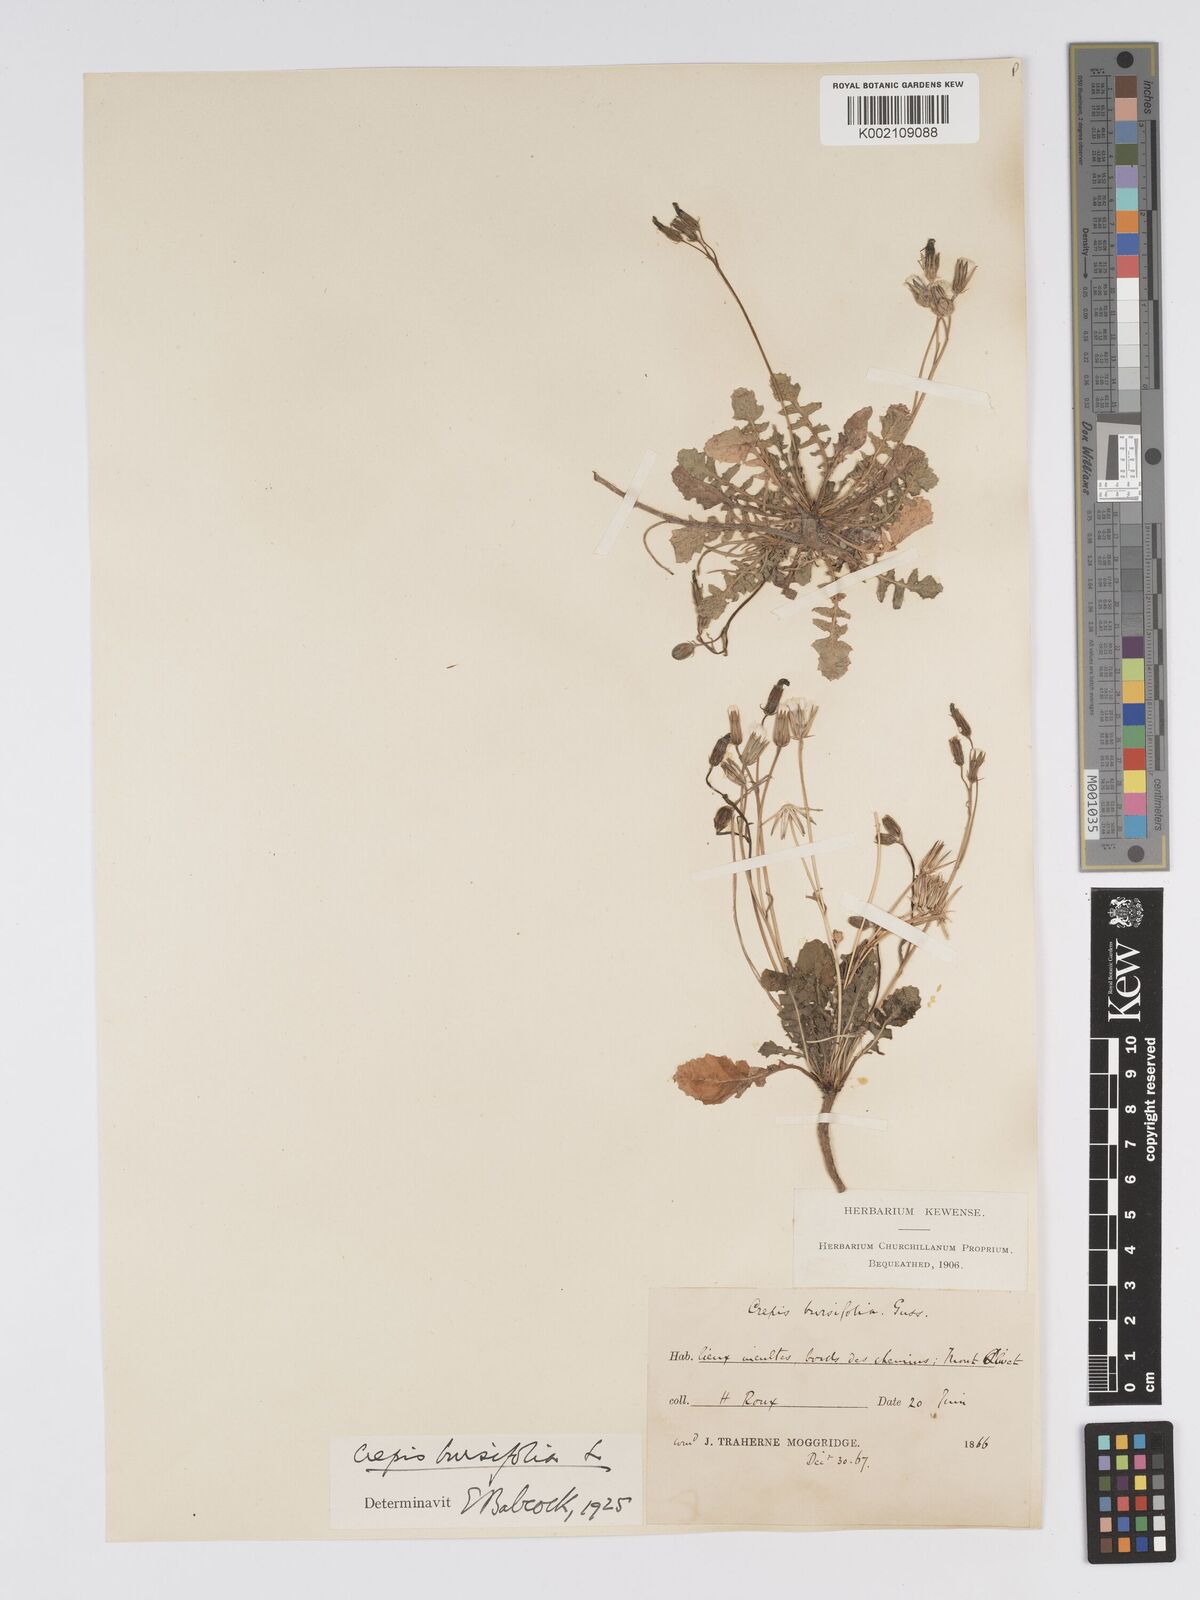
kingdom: Plantae
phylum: Tracheophyta
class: Magnoliopsida
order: Asterales
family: Asteraceae
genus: Crepis
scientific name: Crepis bursifolia
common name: Italian hawksbeard
